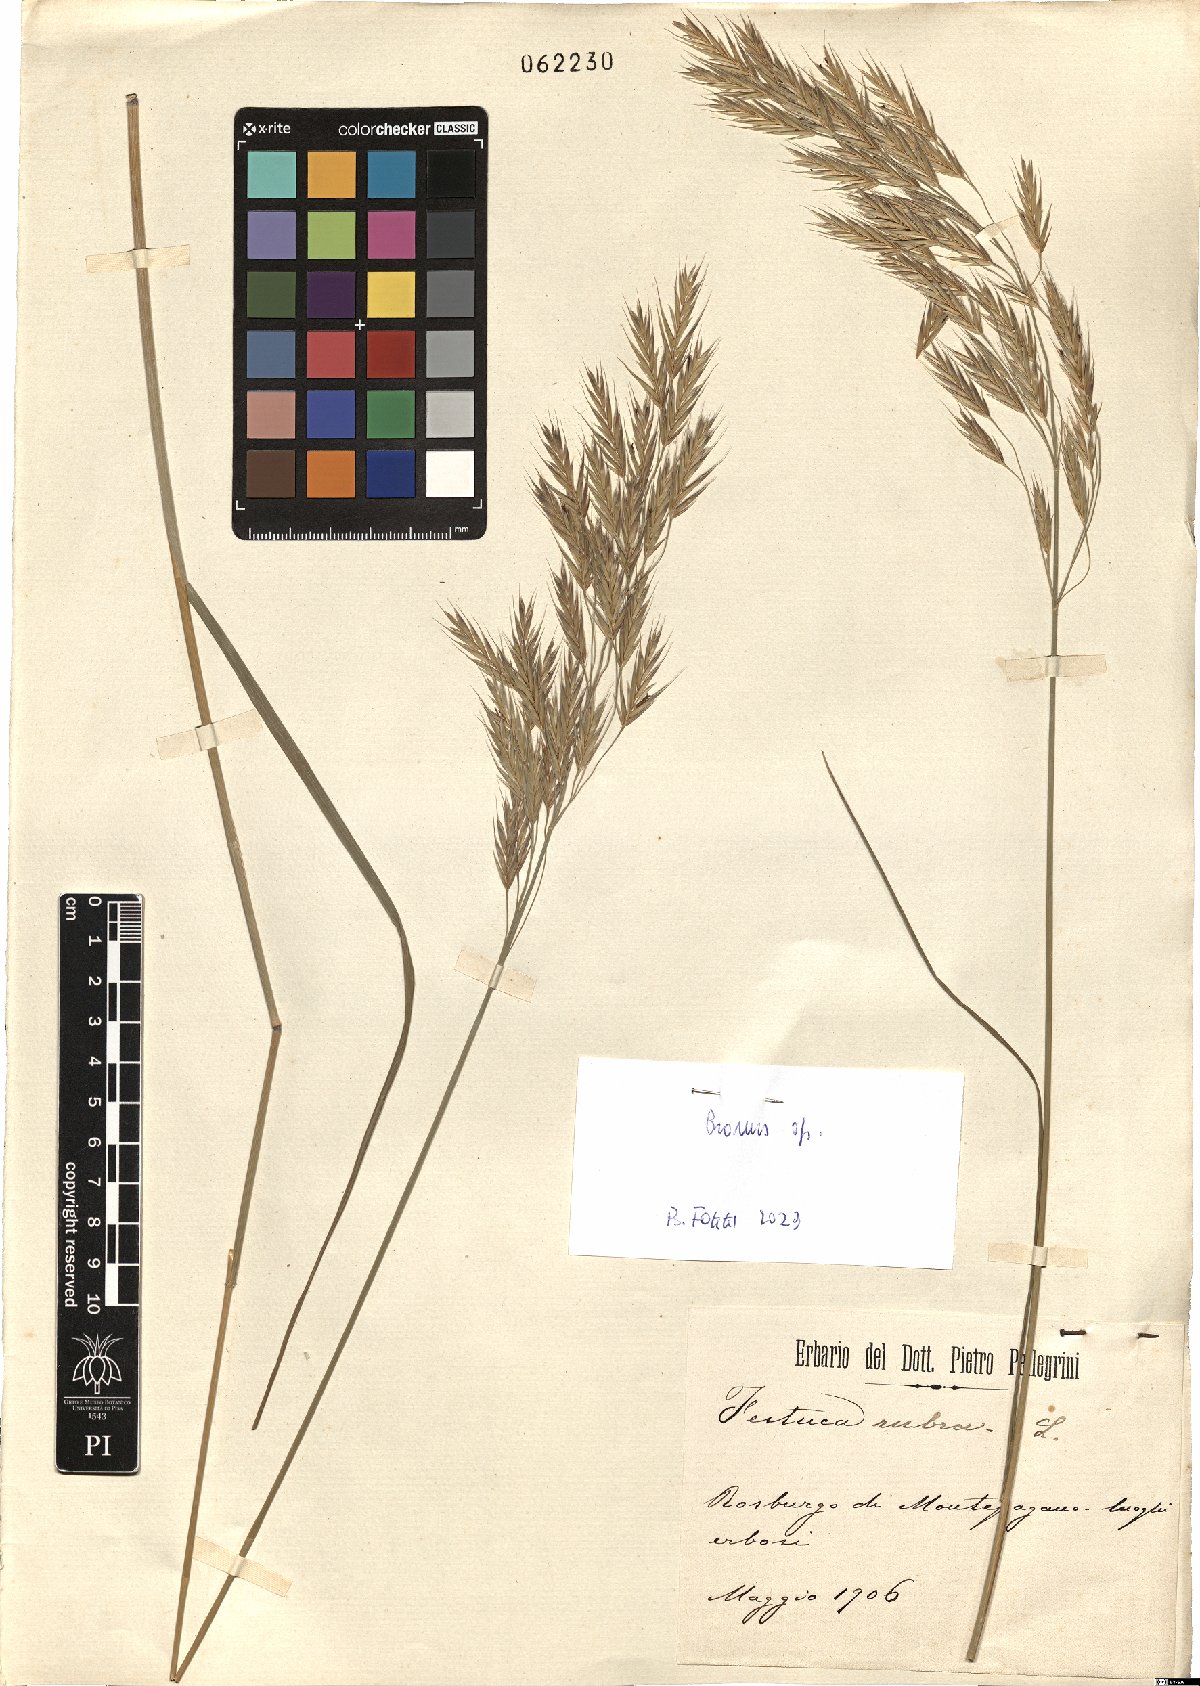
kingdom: Plantae
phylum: Tracheophyta
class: Liliopsida
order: Poales
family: Poaceae
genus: Bromus
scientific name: Bromus
